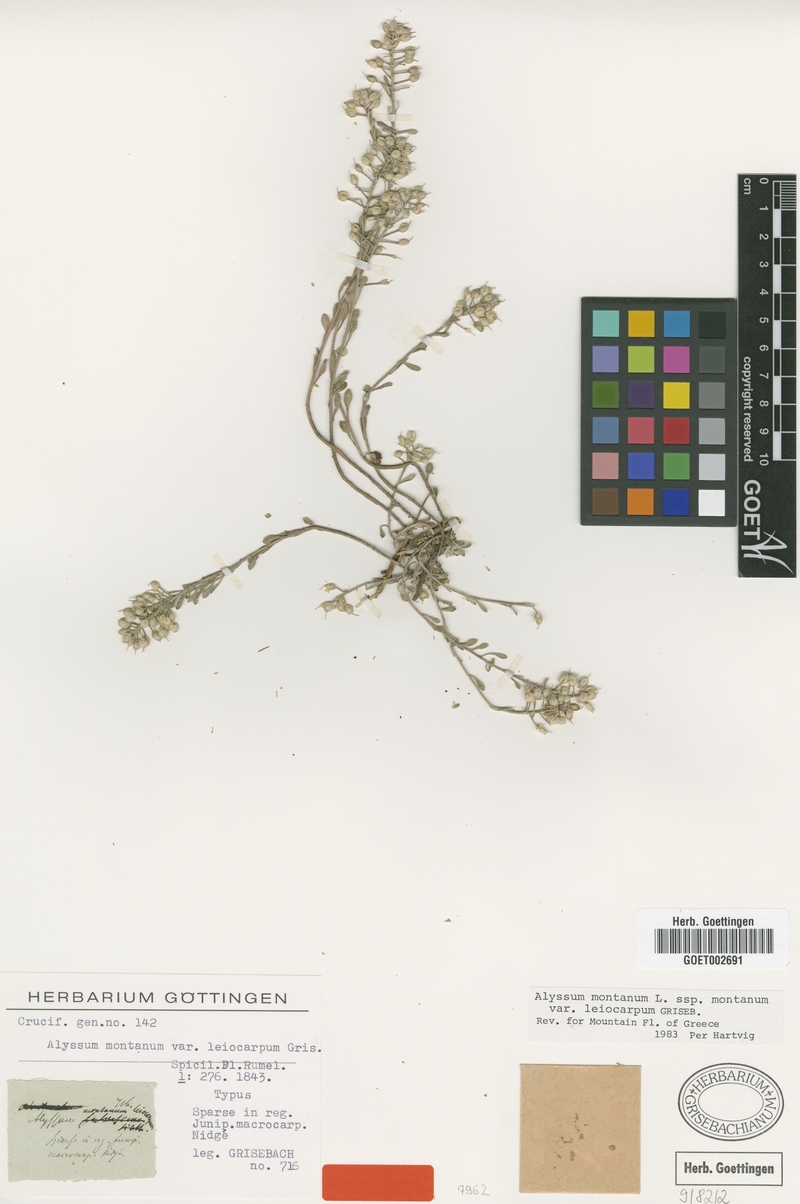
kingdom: Plantae
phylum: Tracheophyta
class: Magnoliopsida
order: Brassicales
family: Brassicaceae
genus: Alyssum
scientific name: Alyssum montanum
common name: Mountain alison
